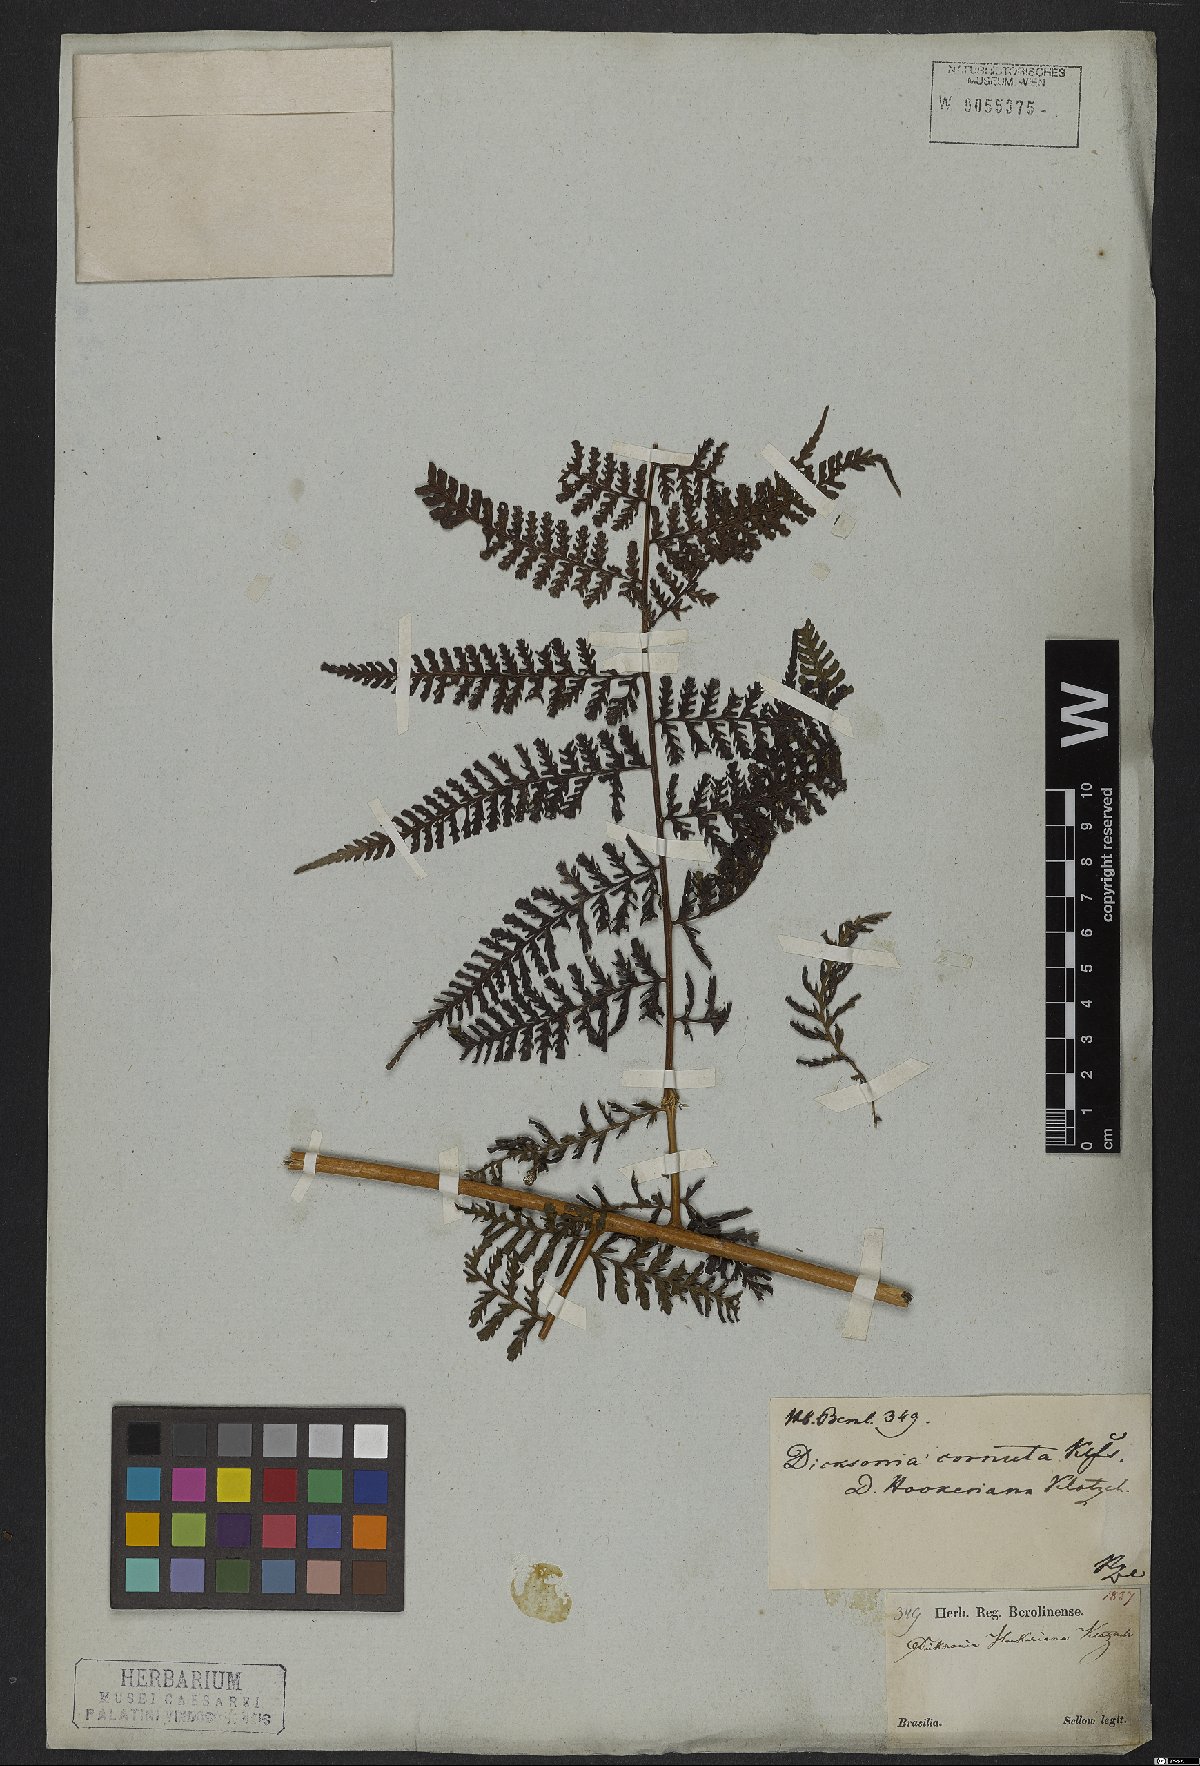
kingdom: Plantae
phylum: Tracheophyta
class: Polypodiopsida
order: Polypodiales
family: Dennstaedtiaceae
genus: Dennstaedtia
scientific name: Dennstaedtia cornuta
